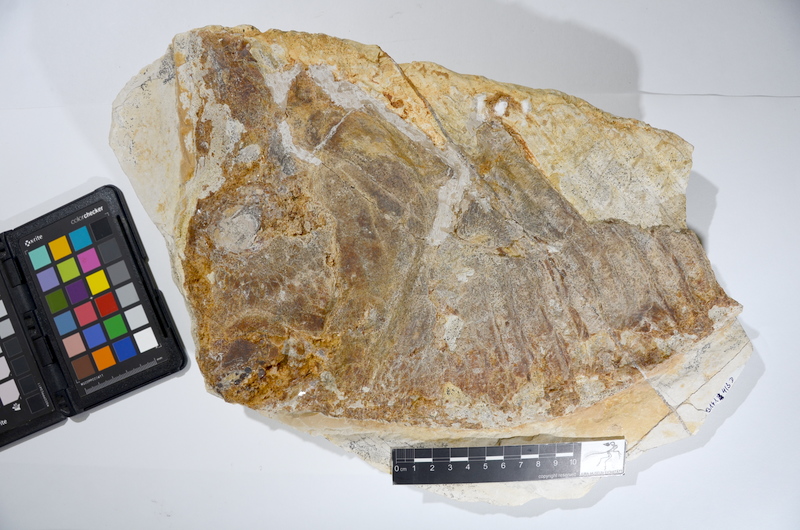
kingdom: Animalia
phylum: Chordata
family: Gyrodontidae
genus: Gyrodus
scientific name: Gyrodus circularis
